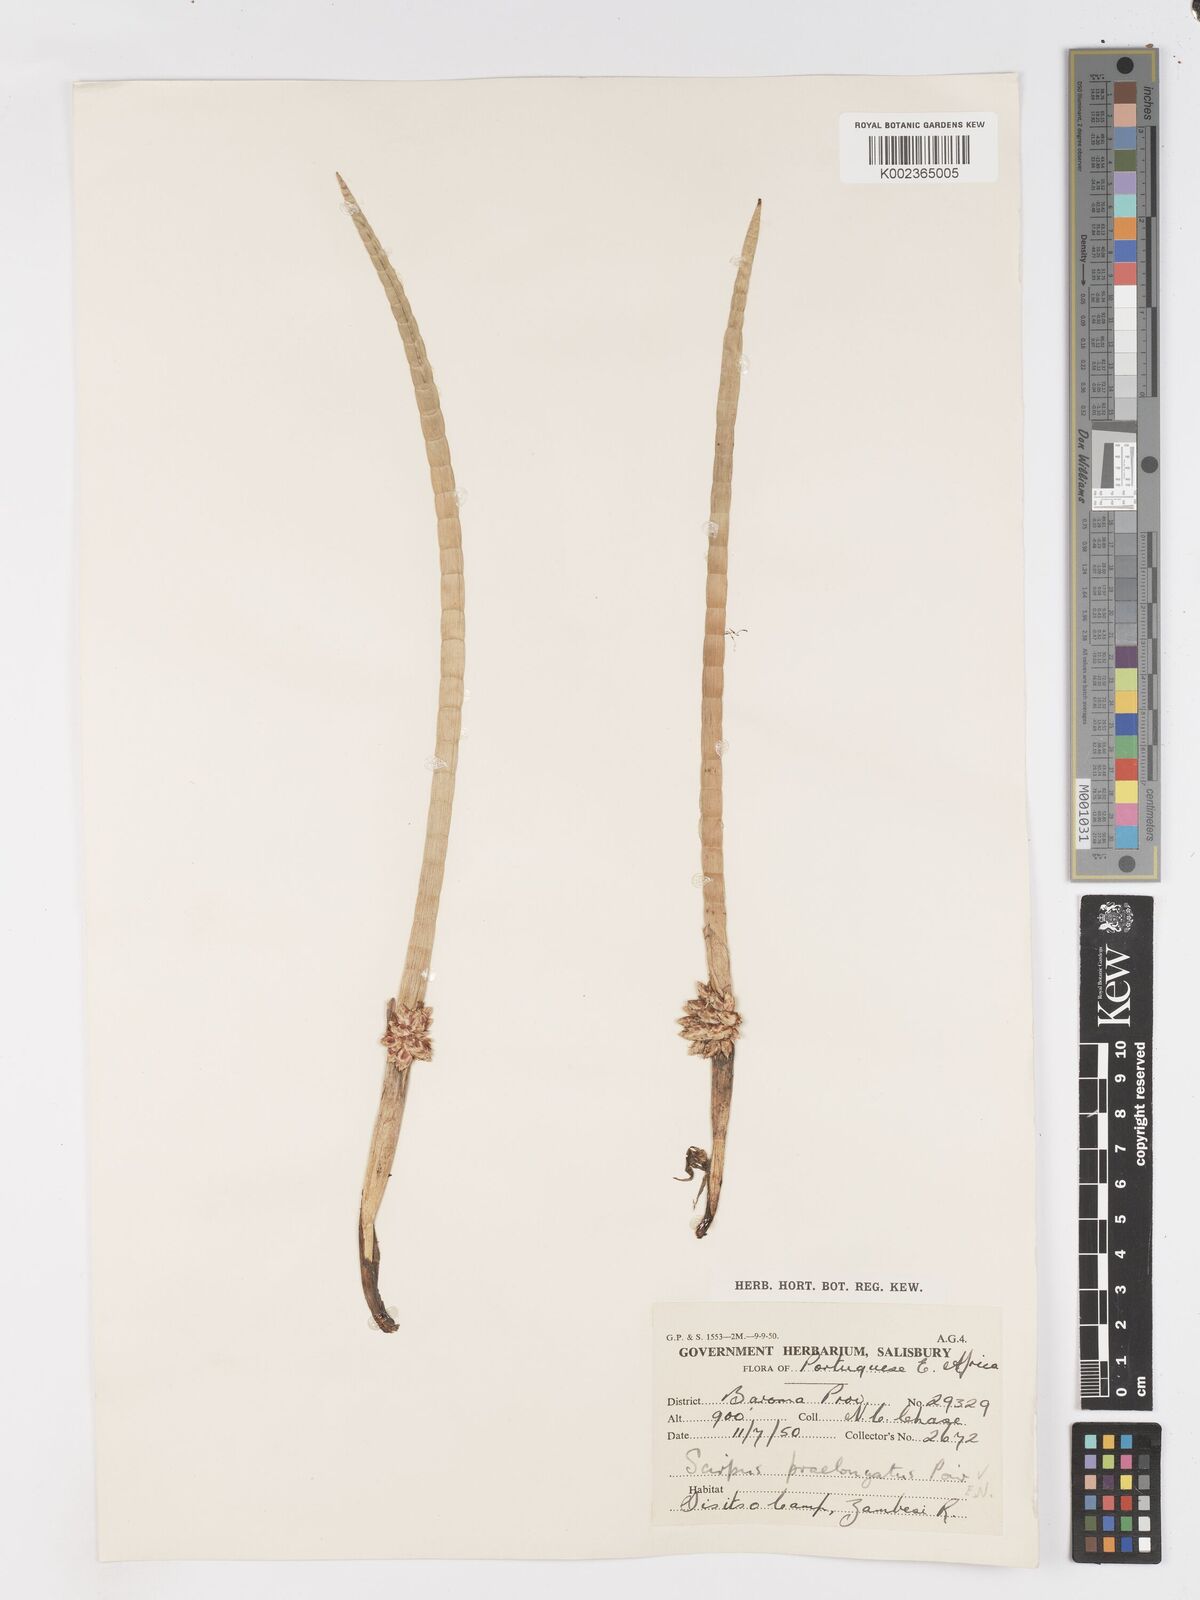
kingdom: Plantae
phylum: Tracheophyta
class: Liliopsida
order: Poales
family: Cyperaceae
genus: Schoenoplectiella
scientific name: Schoenoplectiella articulata
